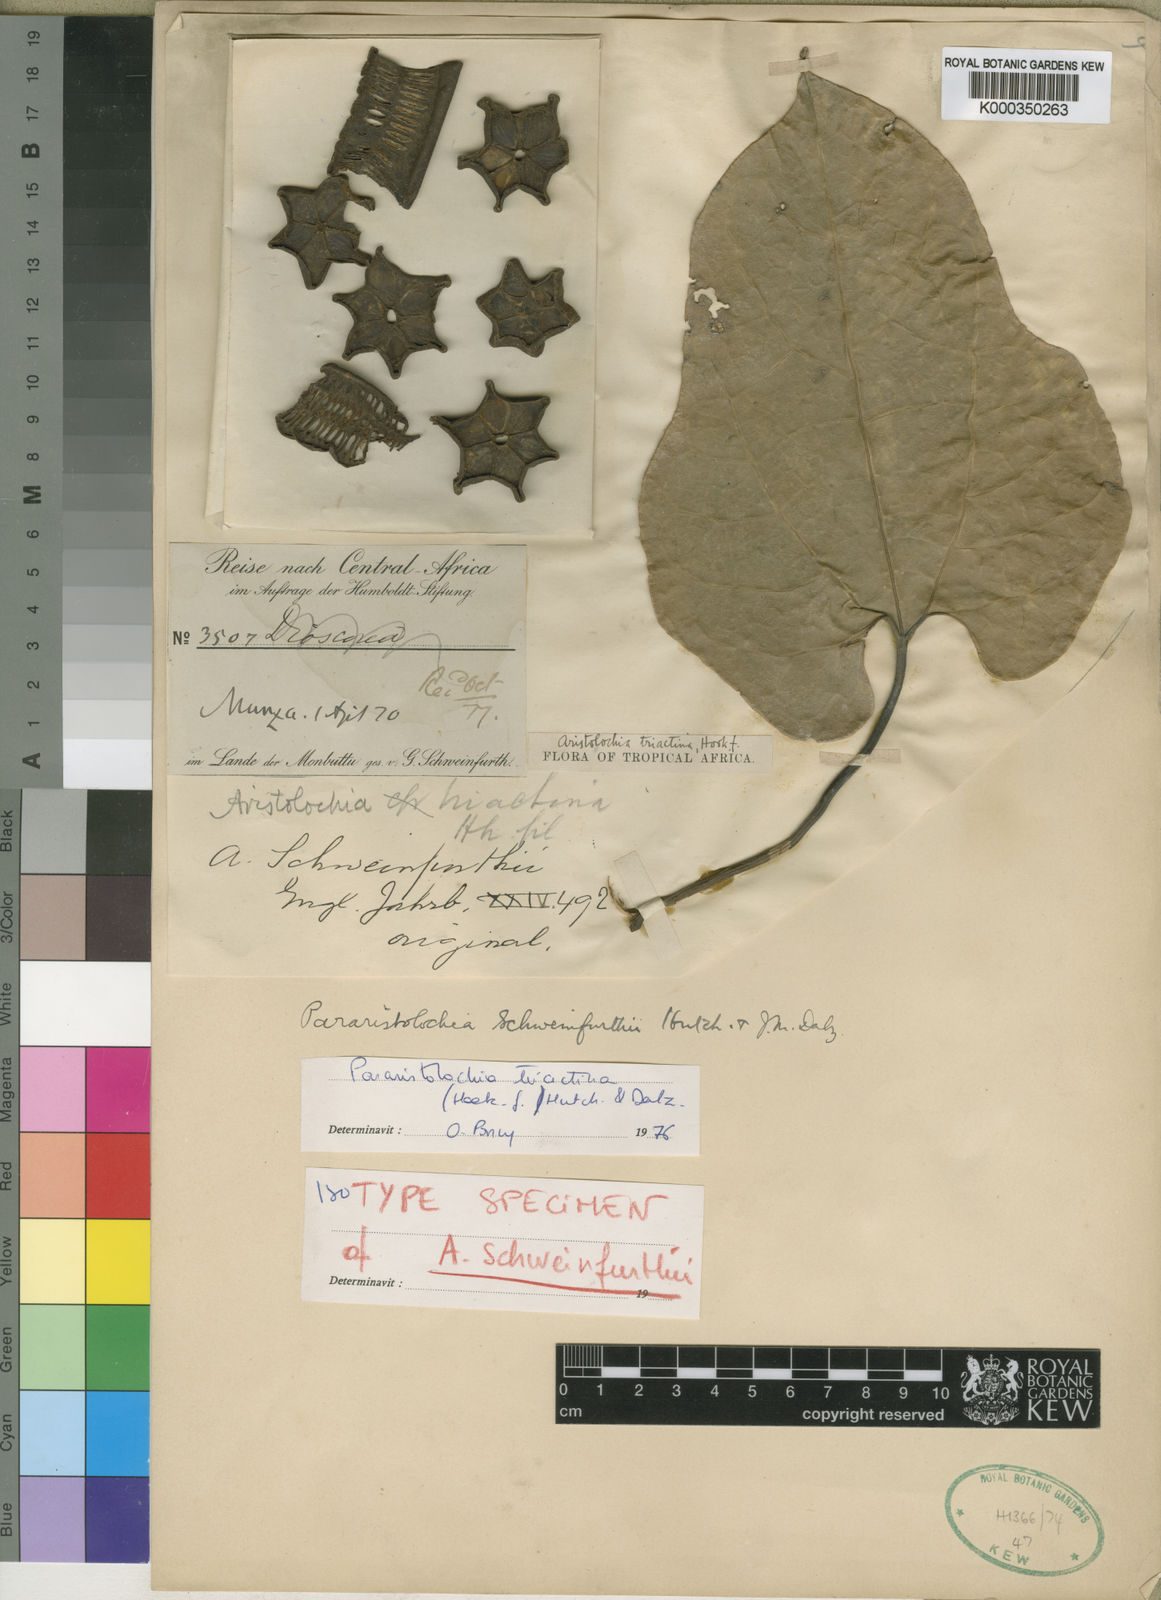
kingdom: Plantae
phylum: Tracheophyta
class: Magnoliopsida
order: Piperales
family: Aristolochiaceae
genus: Aristolochia
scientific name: Aristolochia triactina
